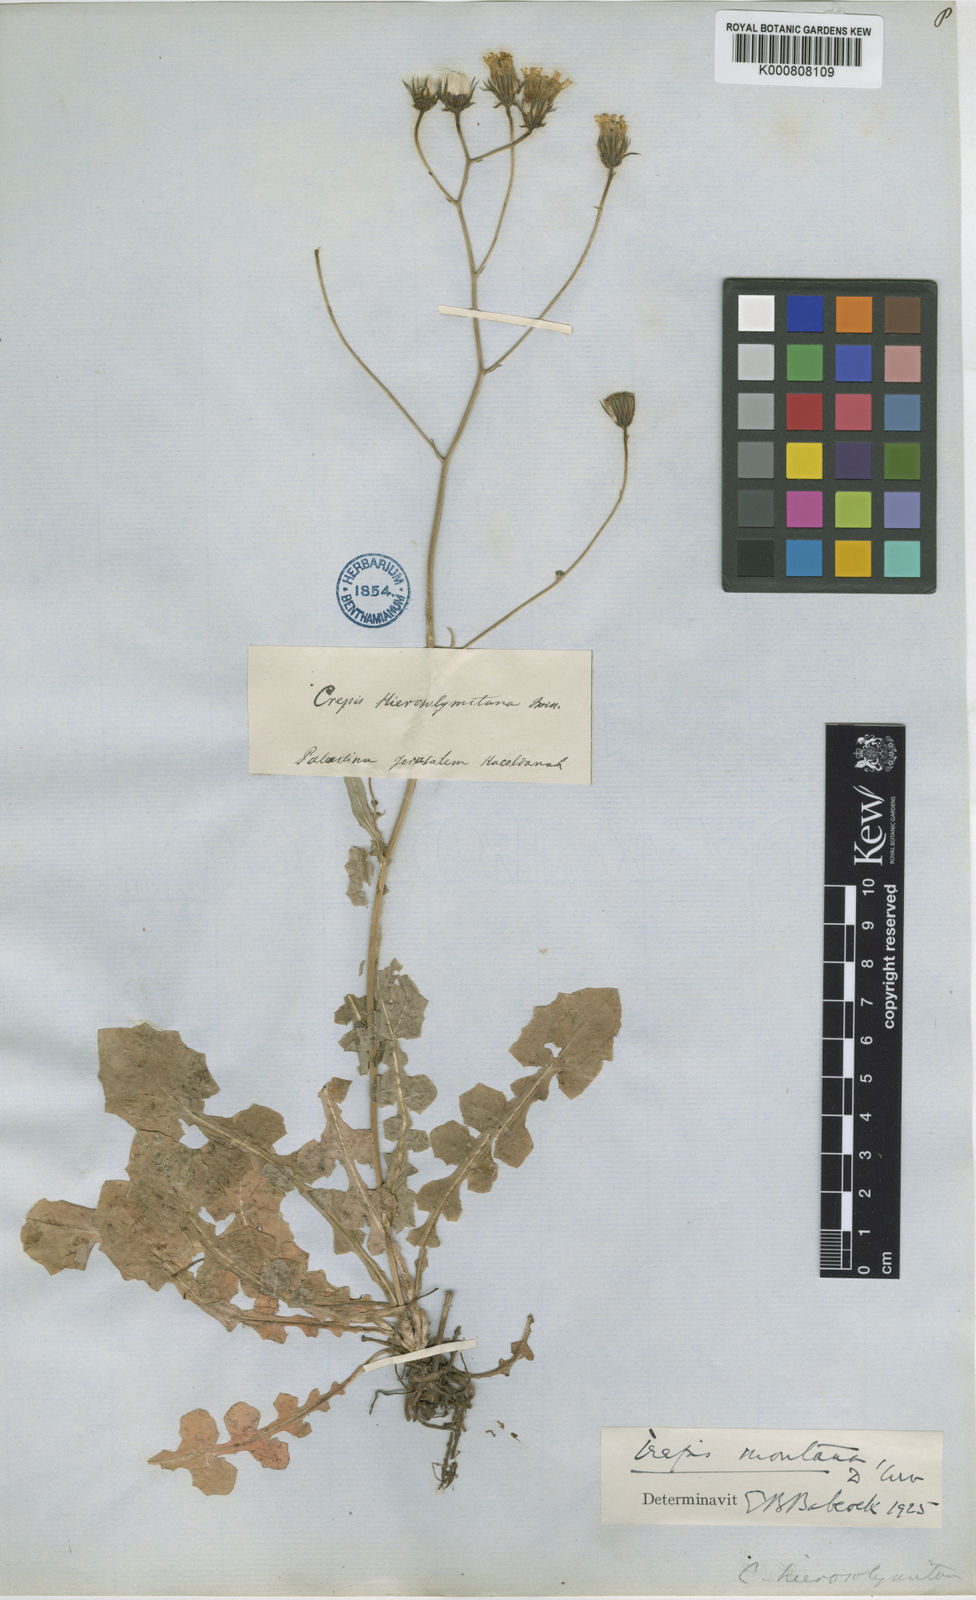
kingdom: Plantae
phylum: Tracheophyta
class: Magnoliopsida
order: Asterales
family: Asteraceae
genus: Crepis
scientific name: Crepis hierosolymitana
